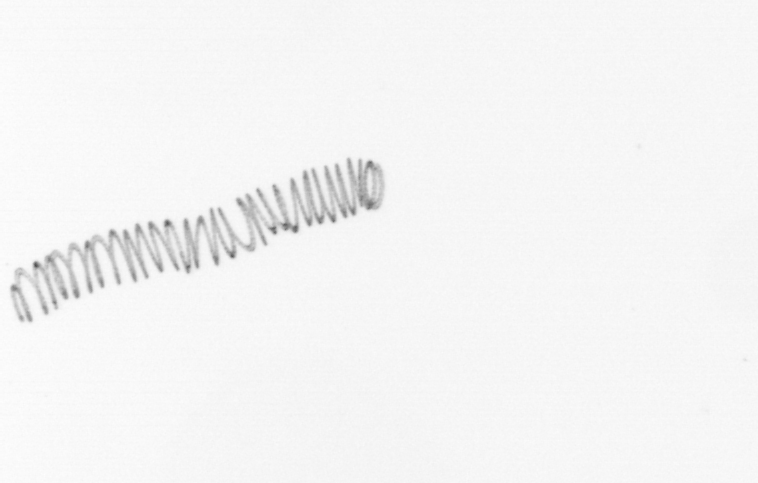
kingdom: Chromista
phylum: Ochrophyta
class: Bacillariophyceae
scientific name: Bacillariophyceae
